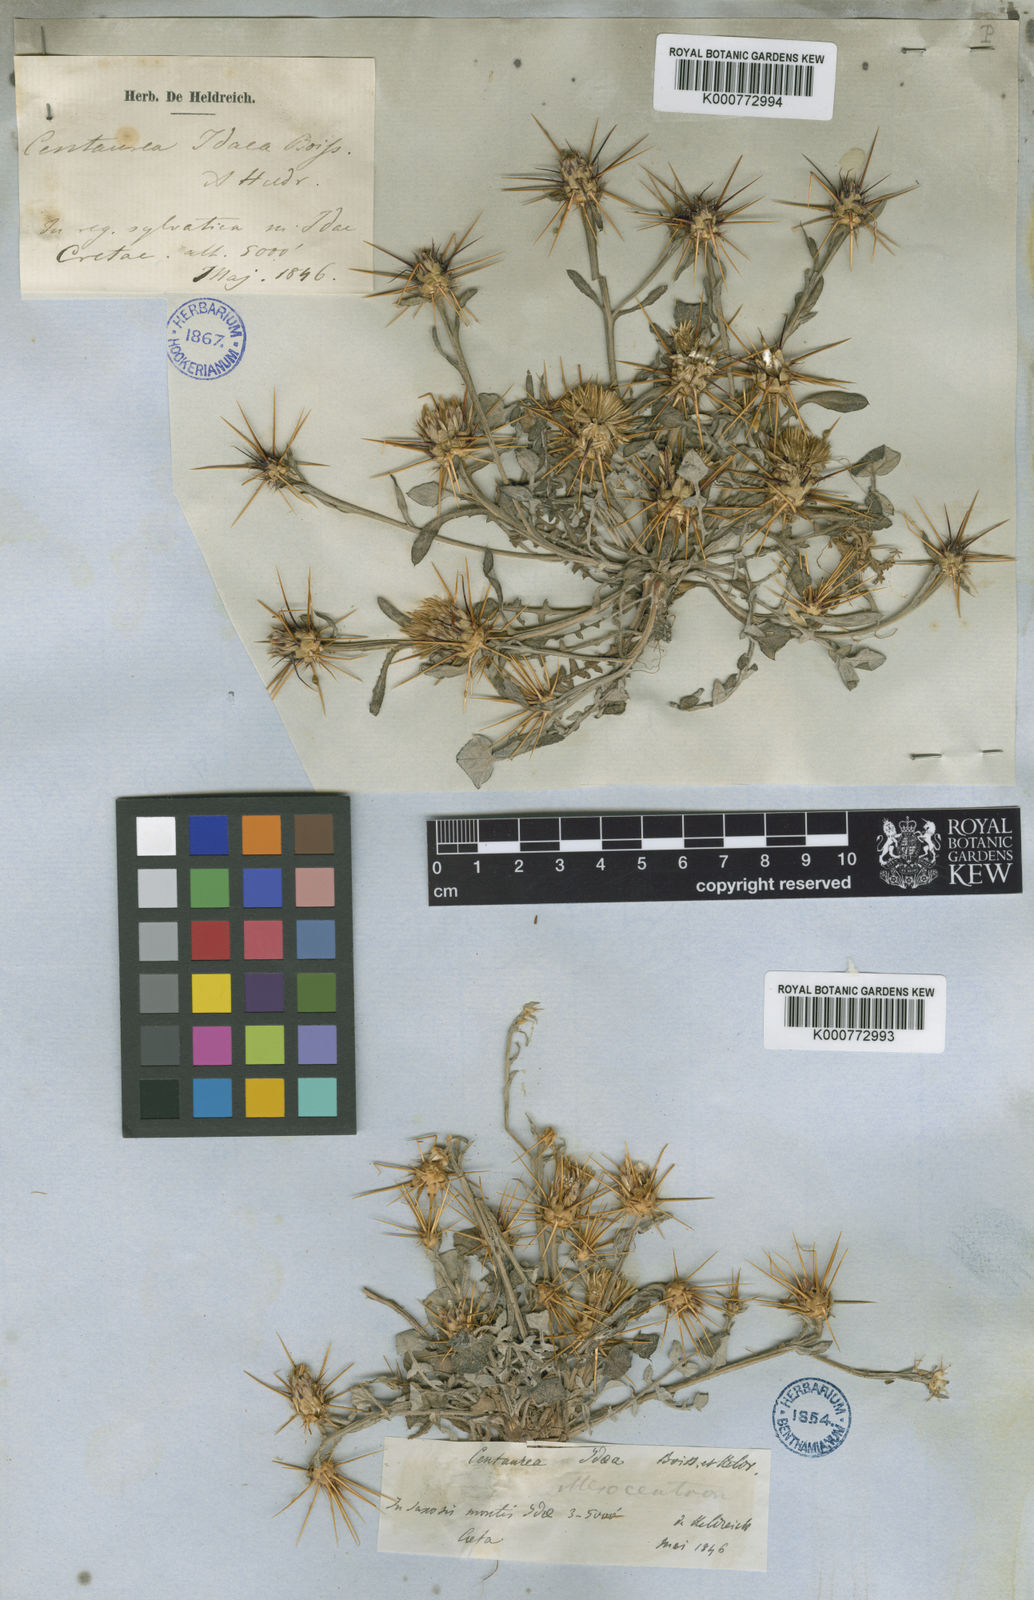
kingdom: Plantae
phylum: Tracheophyta
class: Magnoliopsida
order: Asterales
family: Asteraceae
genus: Centaurea
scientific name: Centaurea idaea
